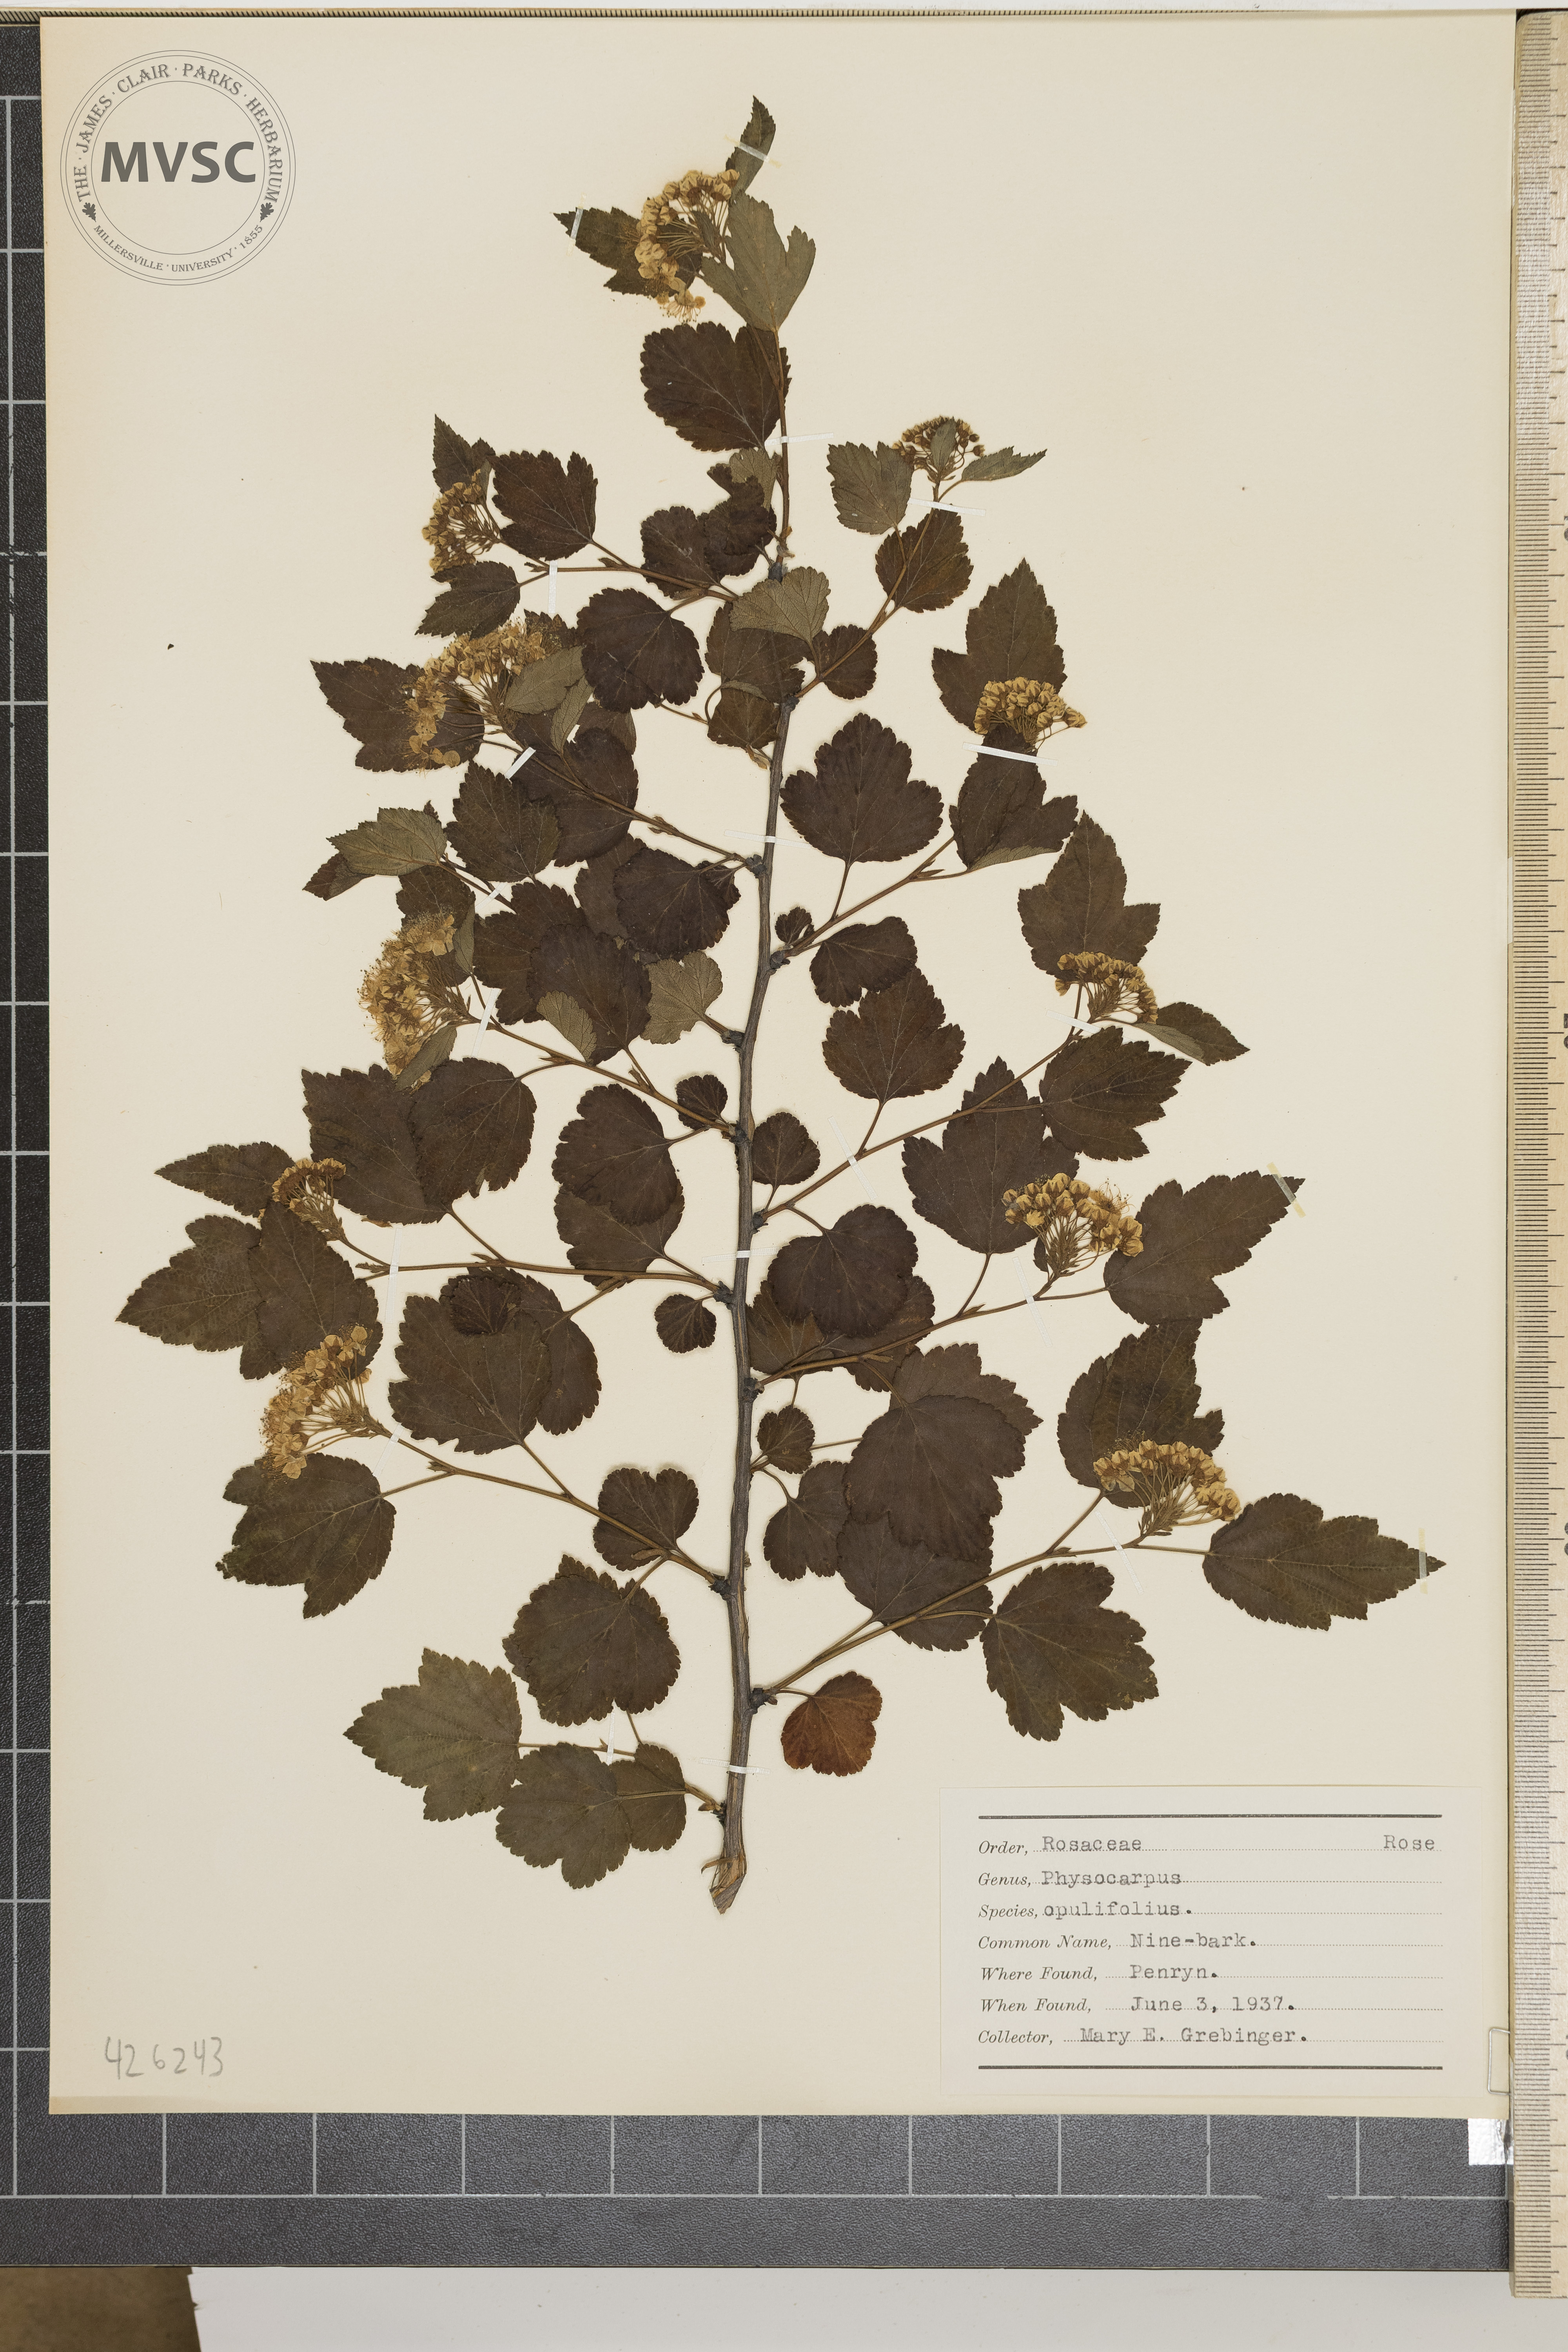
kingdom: Plantae
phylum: Tracheophyta
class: Magnoliopsida
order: Rosales
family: Rosaceae
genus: Physocarpus
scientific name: Physocarpus opulifolius
